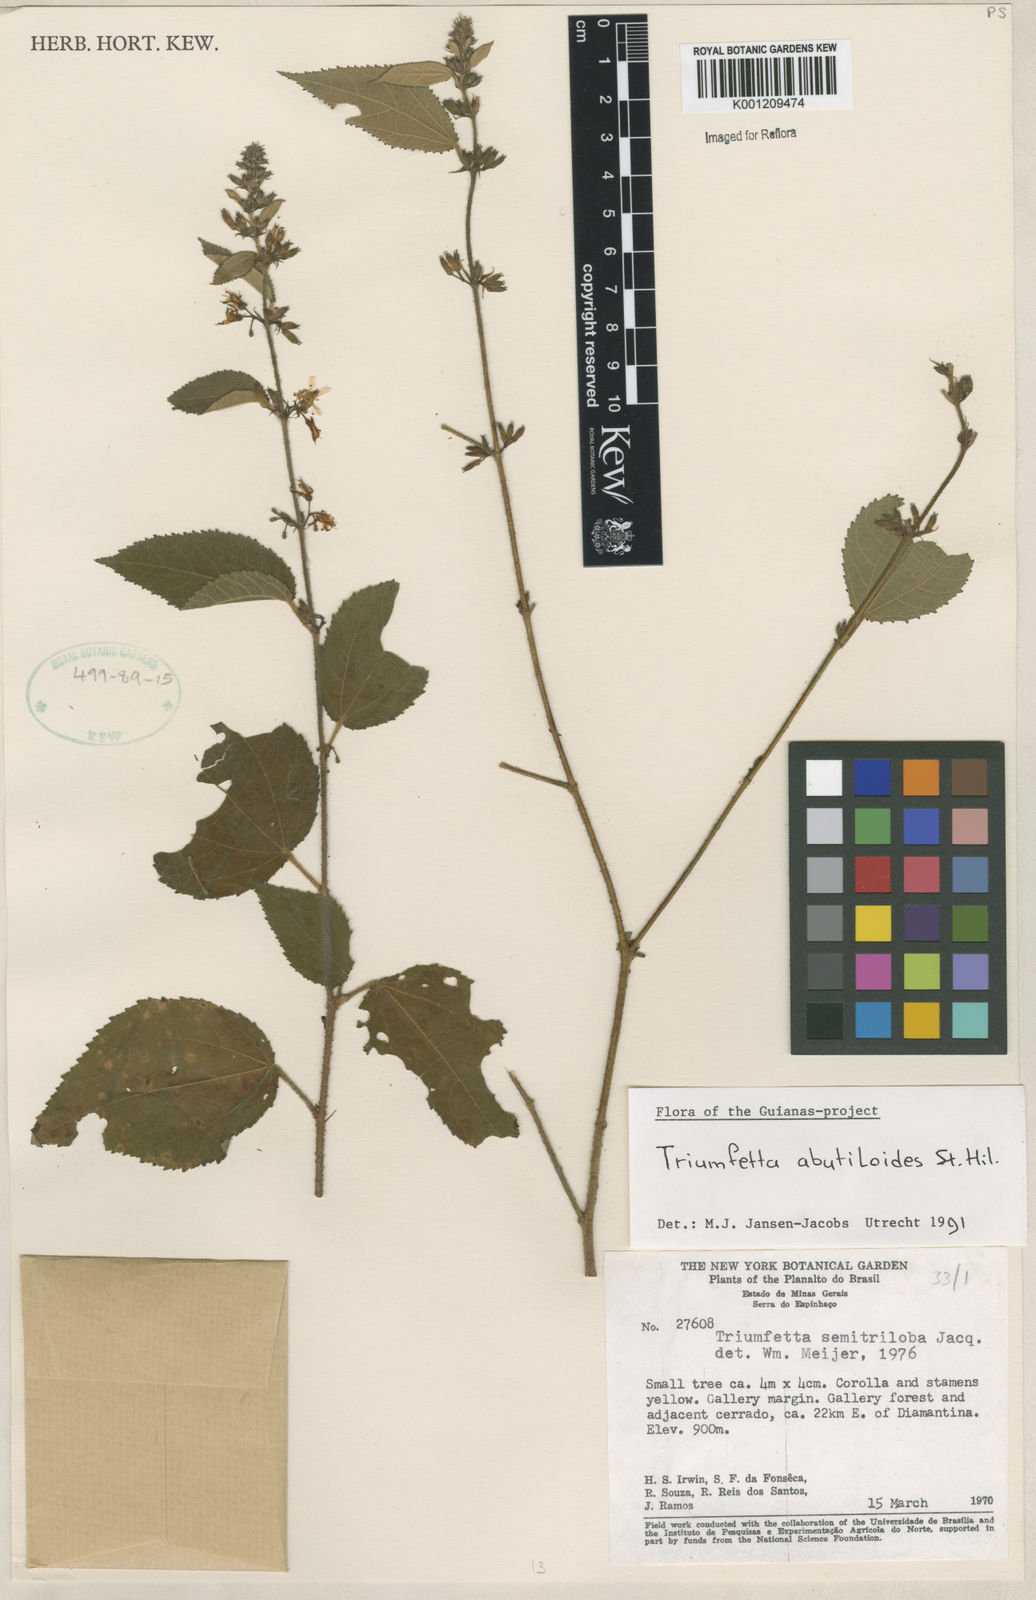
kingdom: Plantae
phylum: Tracheophyta
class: Magnoliopsida
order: Malvales
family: Malvaceae
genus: Triumfetta
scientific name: Triumfetta abutiloides
